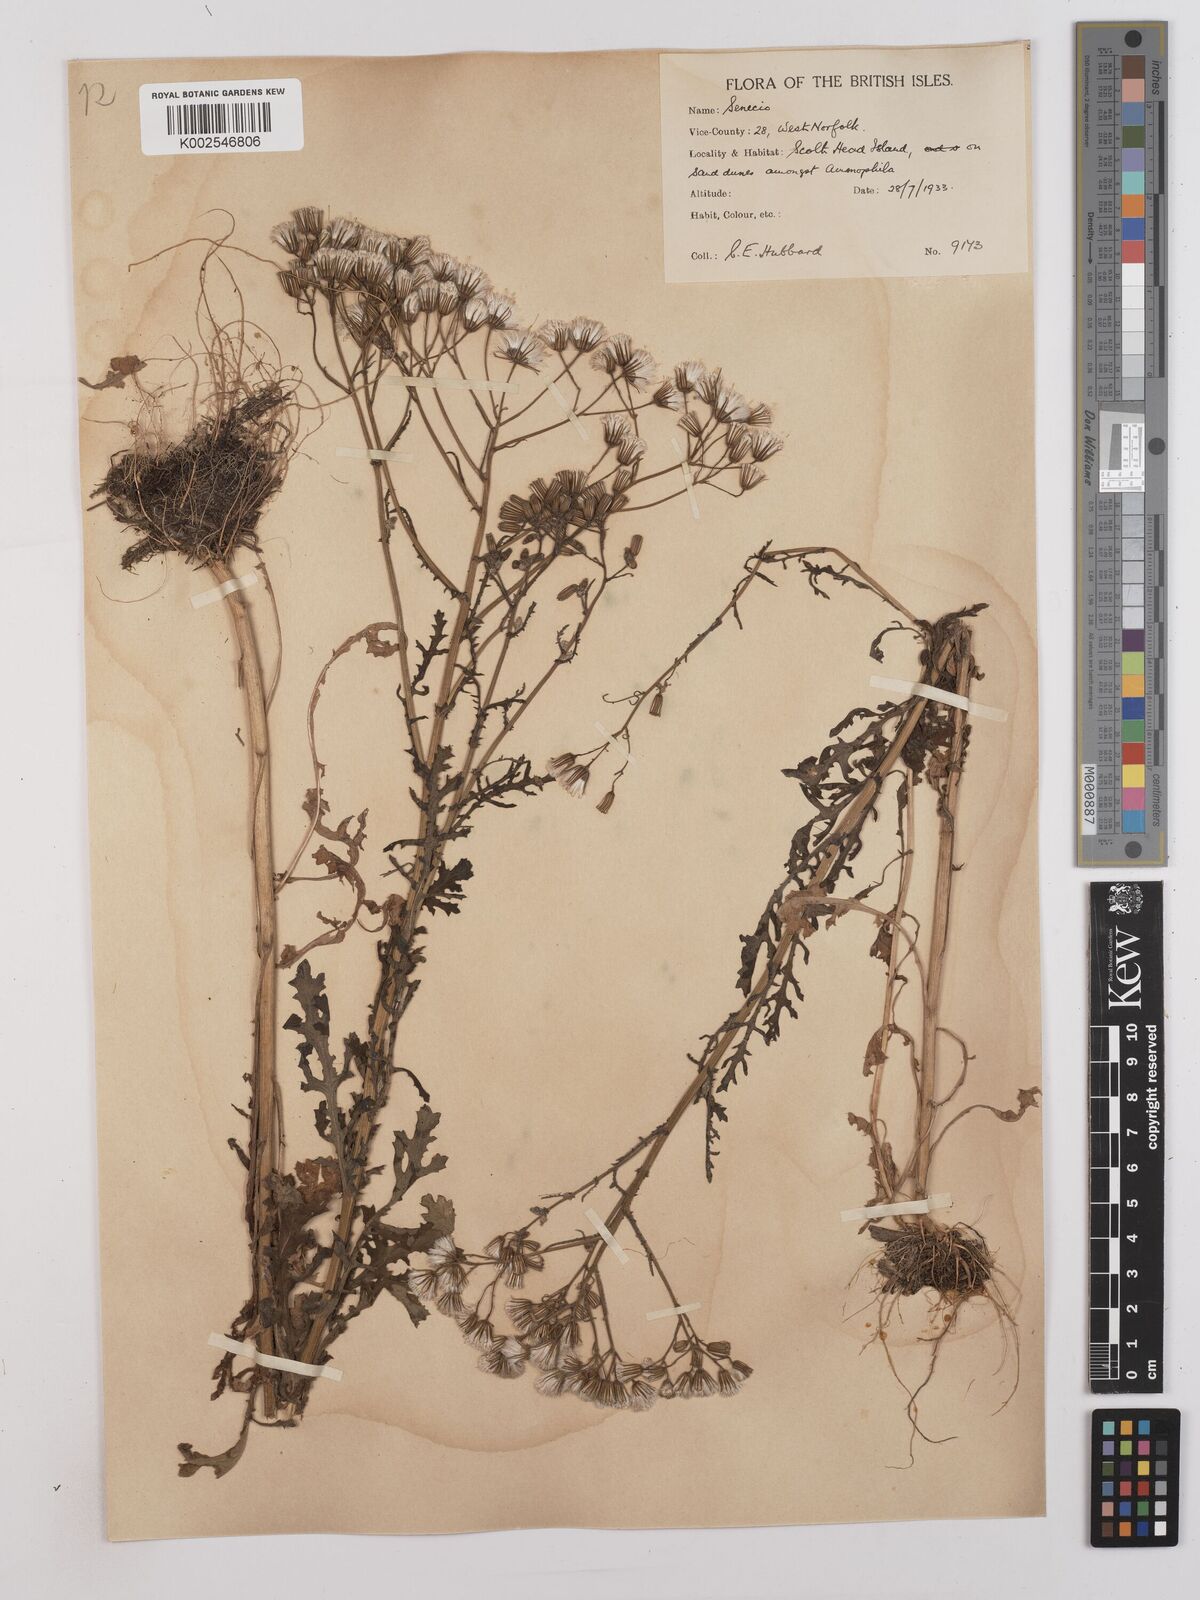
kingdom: Plantae
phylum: Tracheophyta
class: Magnoliopsida
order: Asterales
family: Asteraceae
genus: Senecio
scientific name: Senecio sylvaticus
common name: Woodland ragwort
